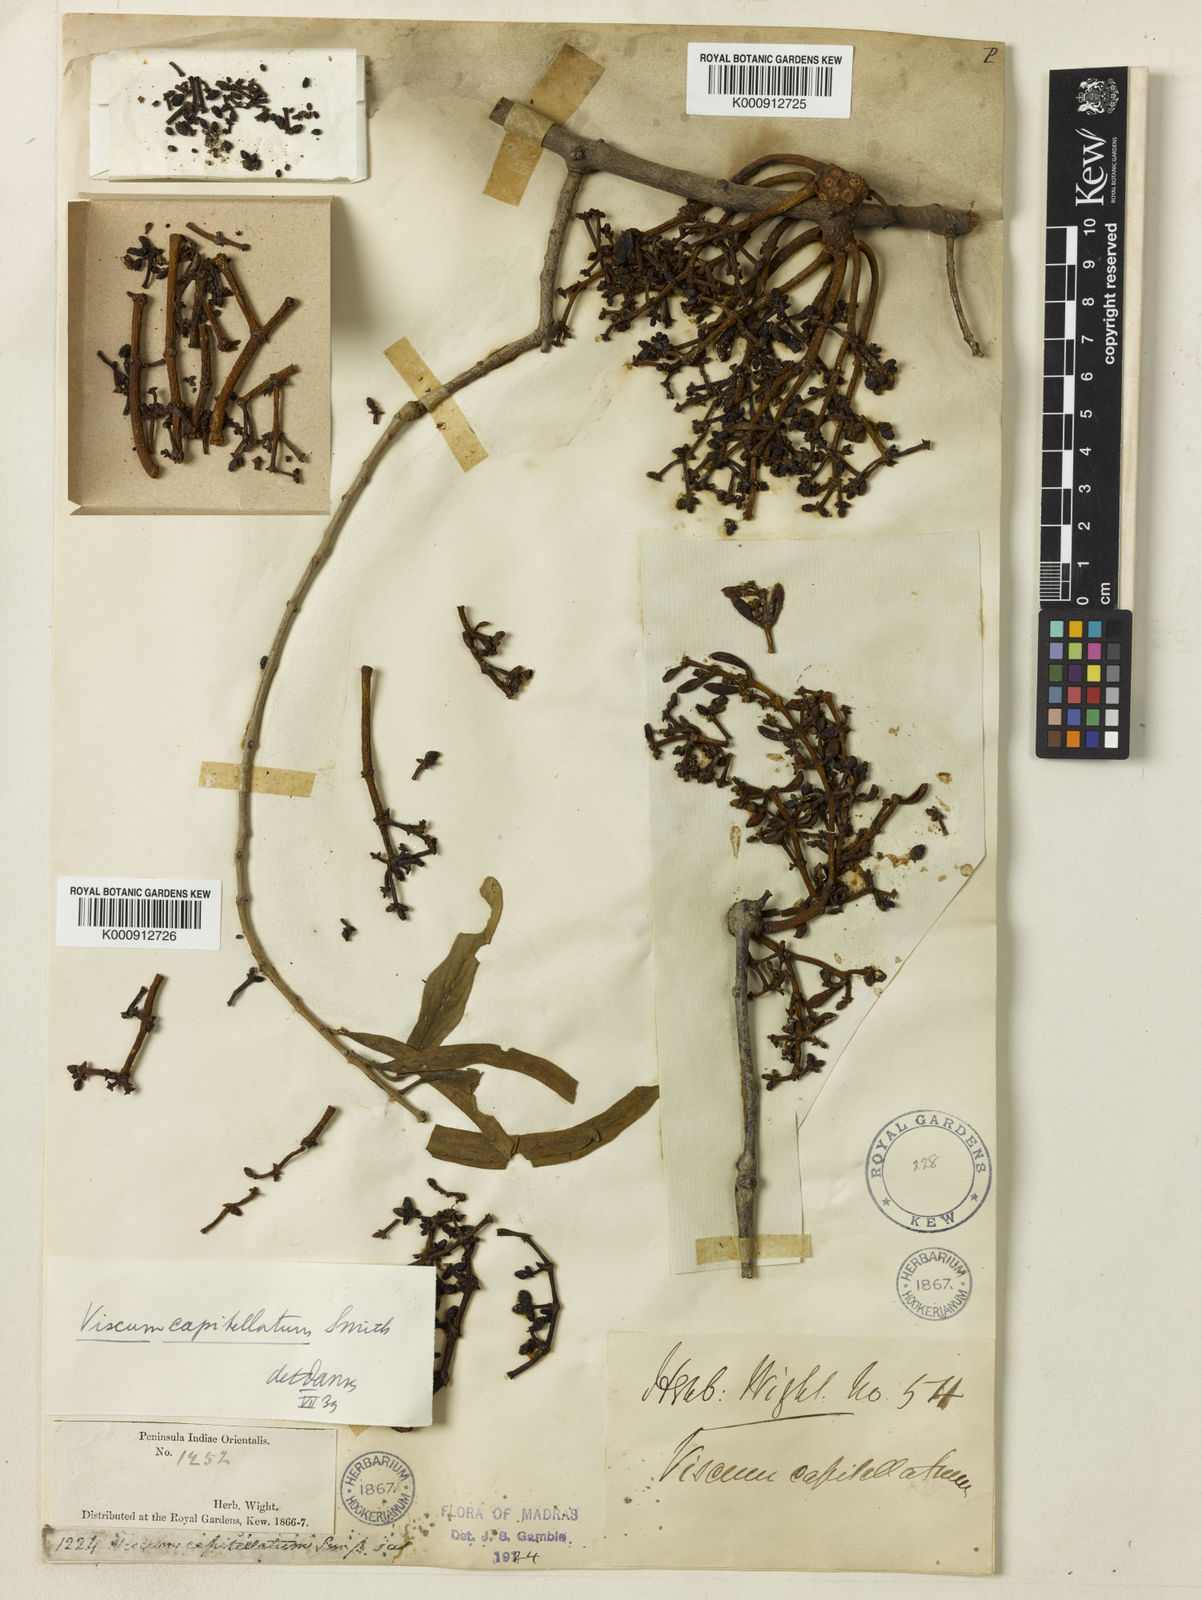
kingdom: Plantae
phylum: Tracheophyta
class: Magnoliopsida
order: Santalales
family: Viscaceae
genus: Viscum
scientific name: Viscum capitellatum
